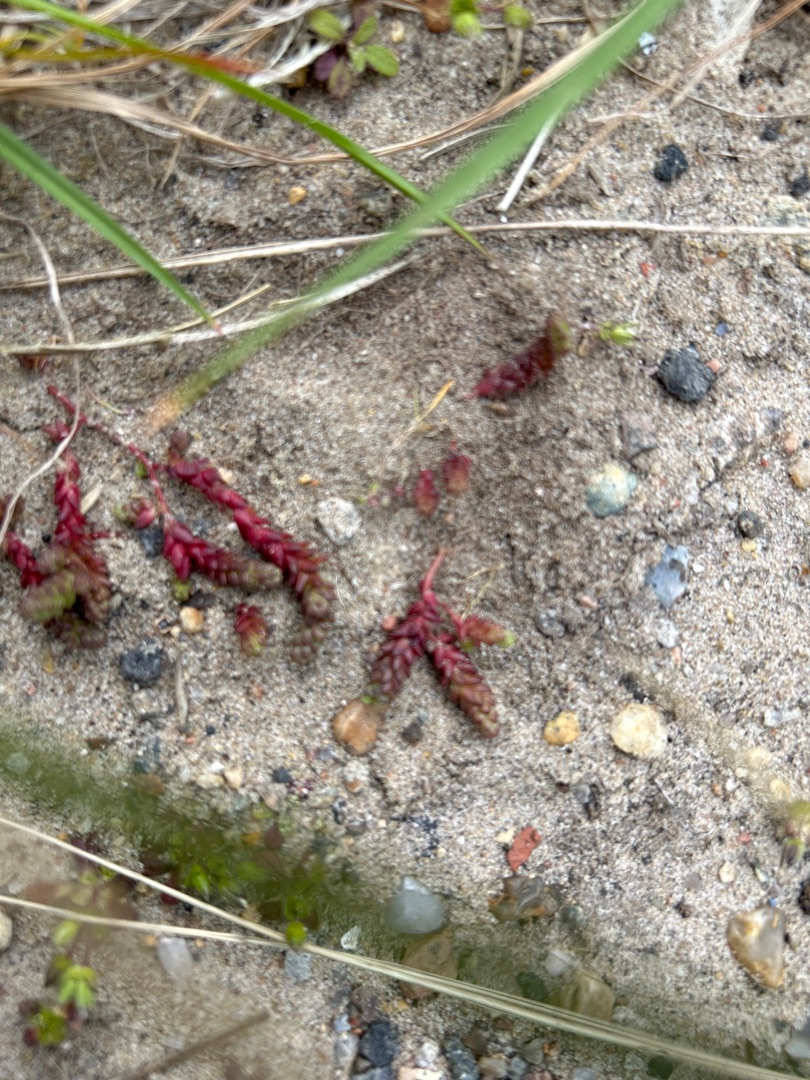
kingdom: Plantae
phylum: Tracheophyta
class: Magnoliopsida
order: Saxifragales
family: Crassulaceae
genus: Sedum
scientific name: Sedum acre
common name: Bidende stenurt
